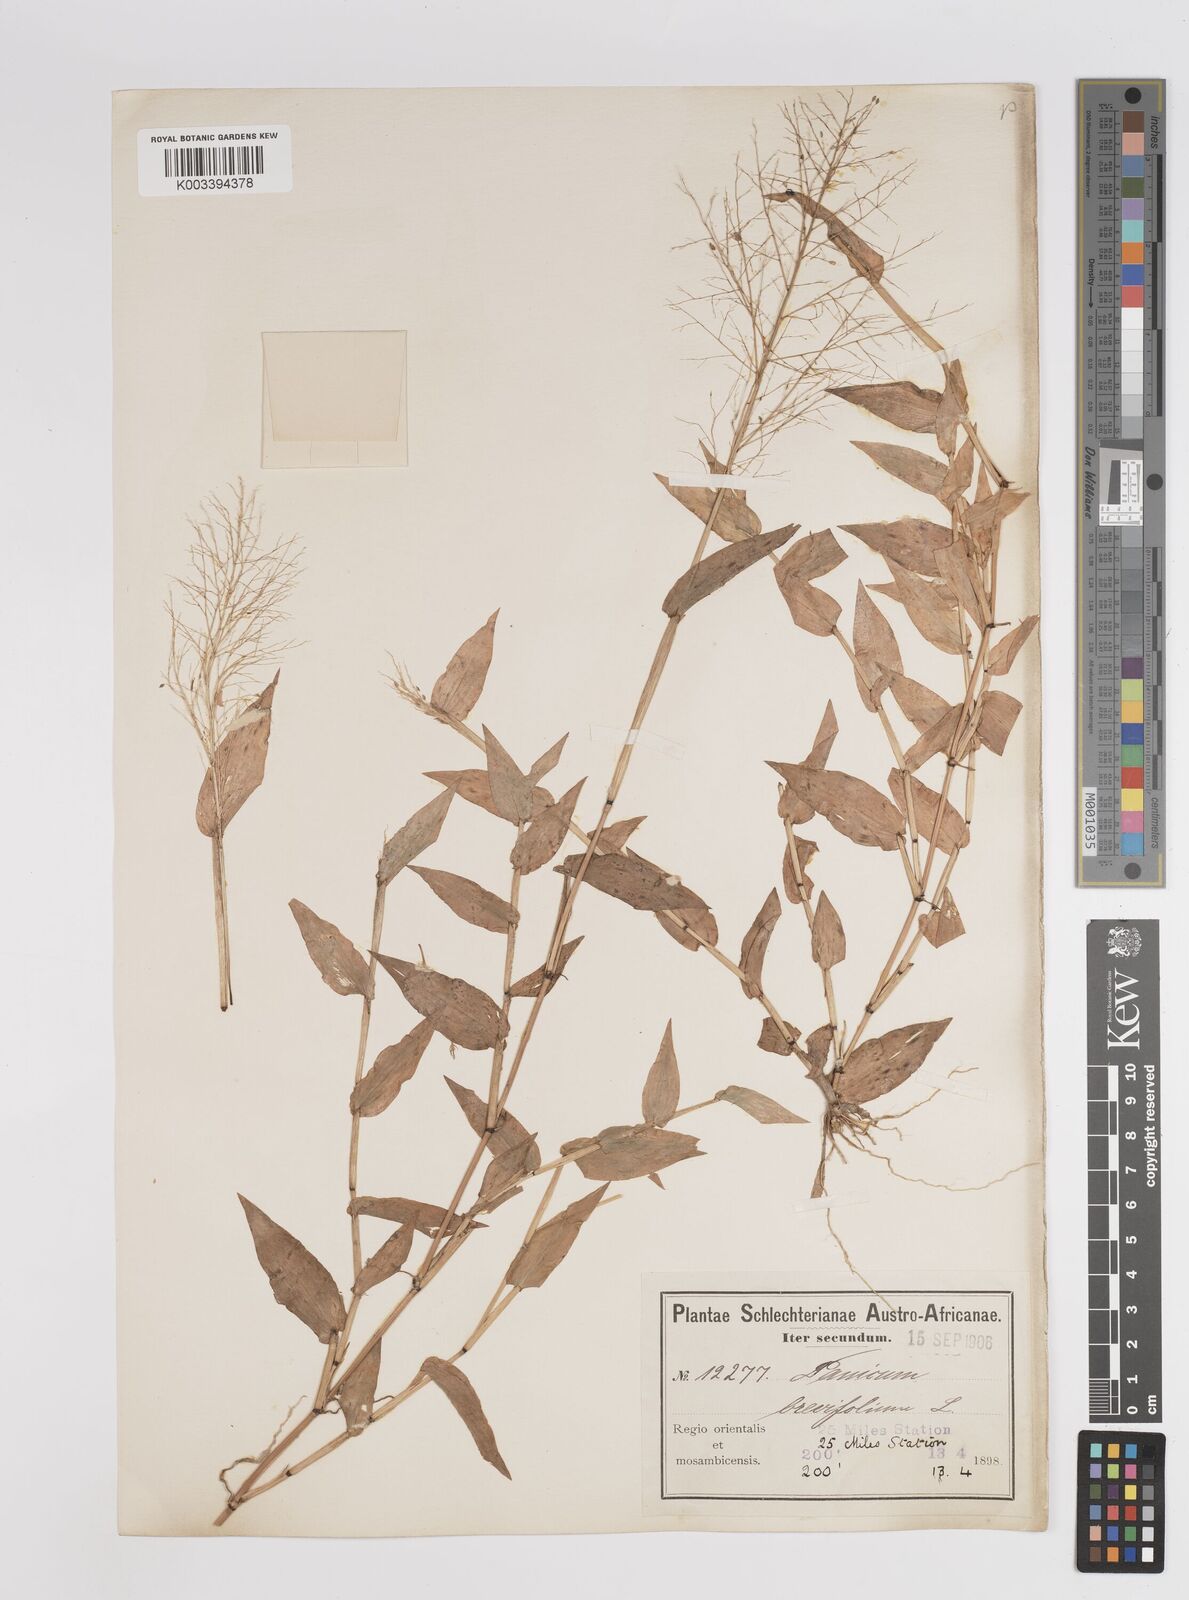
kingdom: Plantae
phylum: Tracheophyta
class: Liliopsida
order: Poales
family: Poaceae
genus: Panicum
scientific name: Panicum jahnii
